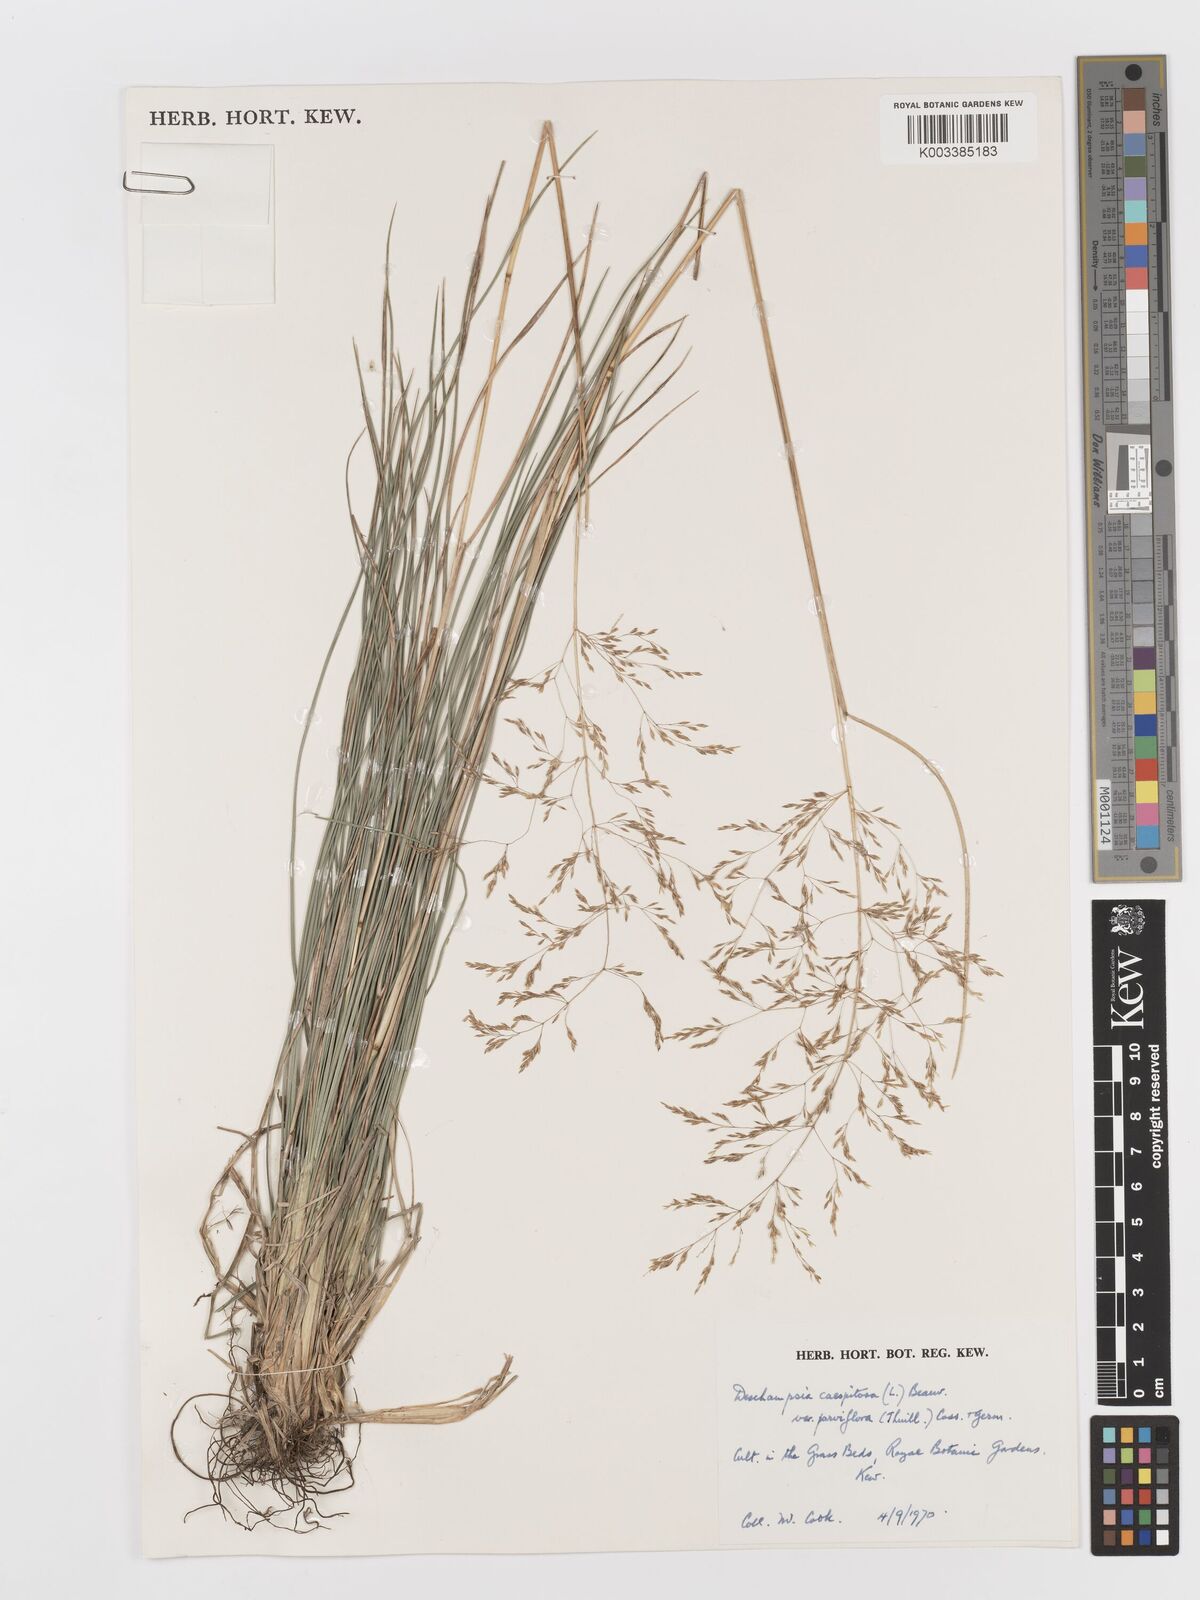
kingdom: Plantae
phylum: Tracheophyta
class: Liliopsida
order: Poales
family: Poaceae
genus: Deschampsia
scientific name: Deschampsia cespitosa
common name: Tufted hair-grass
